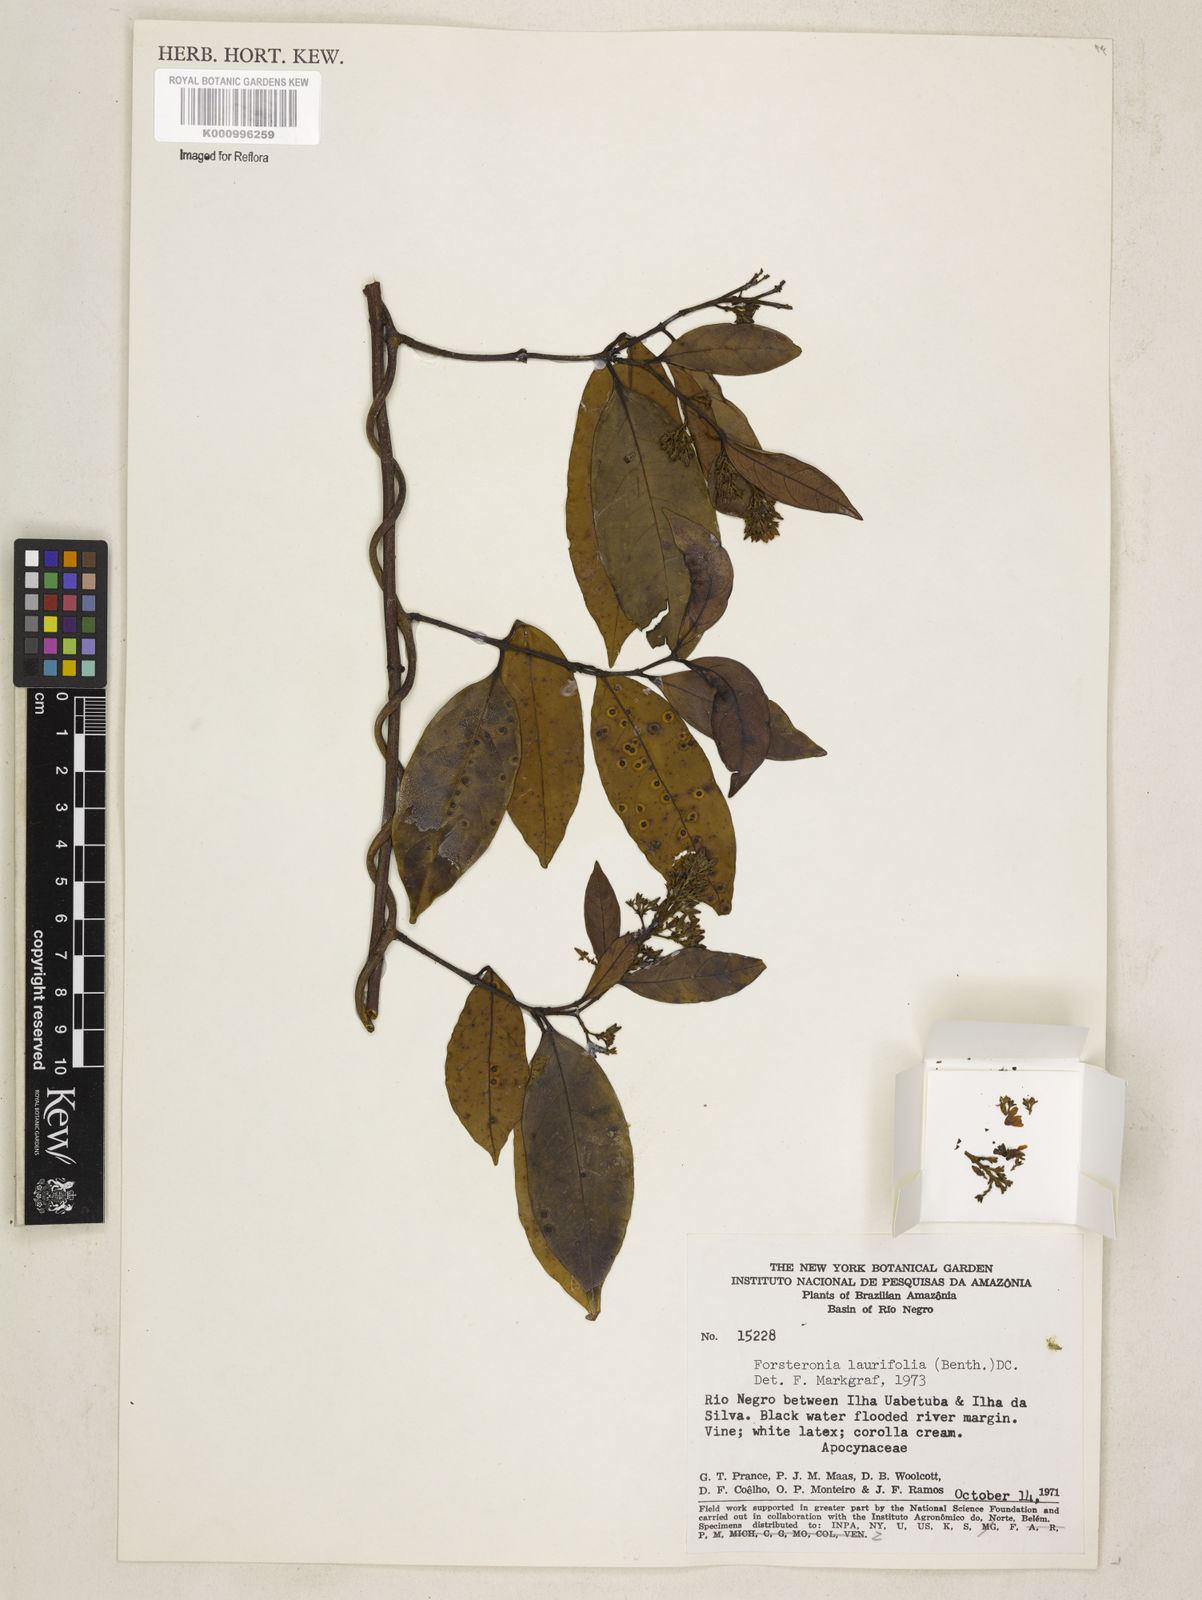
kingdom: Plantae
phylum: Tracheophyta
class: Magnoliopsida
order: Gentianales
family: Apocynaceae
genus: Forsteronia
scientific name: Forsteronia laurifolia
